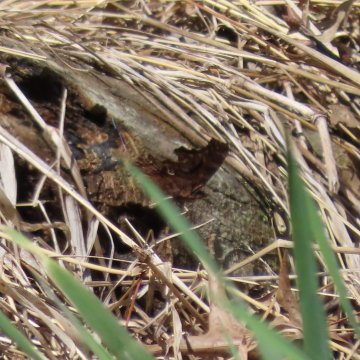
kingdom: Animalia
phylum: Arthropoda
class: Insecta
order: Lepidoptera
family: Nymphalidae
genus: Polygonia
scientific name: Polygonia comma
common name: Eastern Comma
